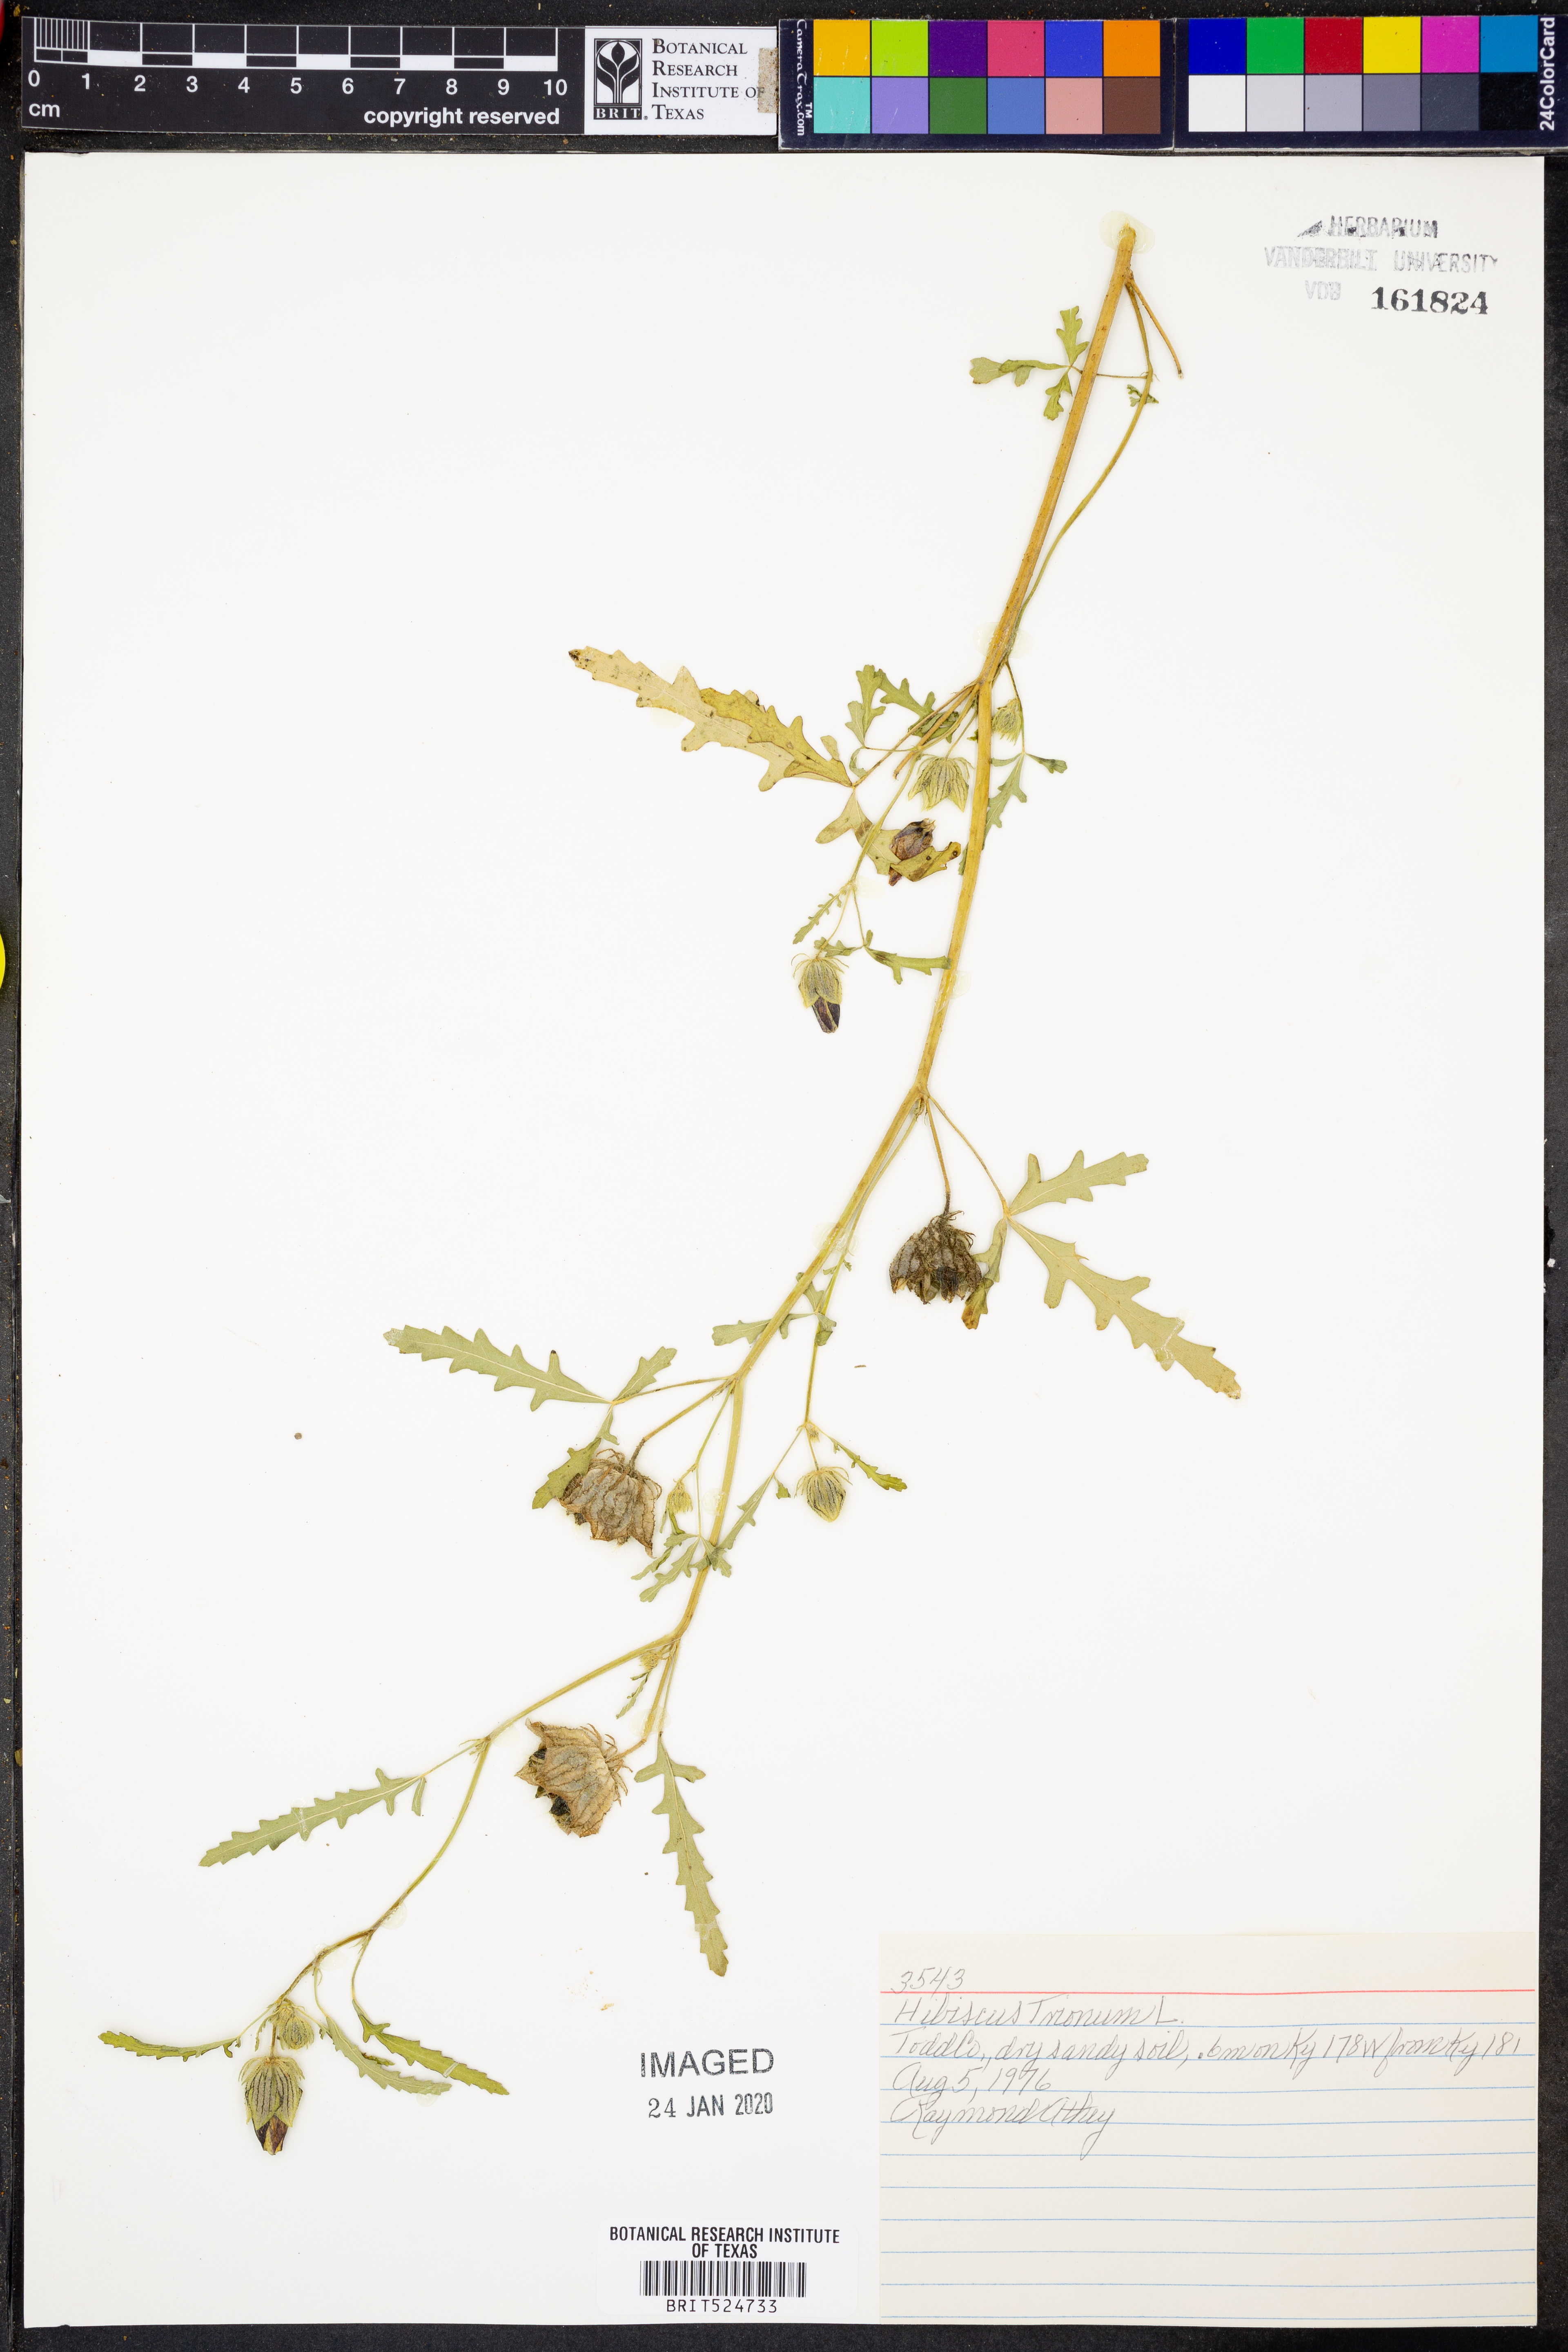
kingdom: Plantae
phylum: Tracheophyta
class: Magnoliopsida
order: Malvales
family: Malvaceae
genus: Hibiscus
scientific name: Hibiscus trionum
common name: Bladder ketmia
